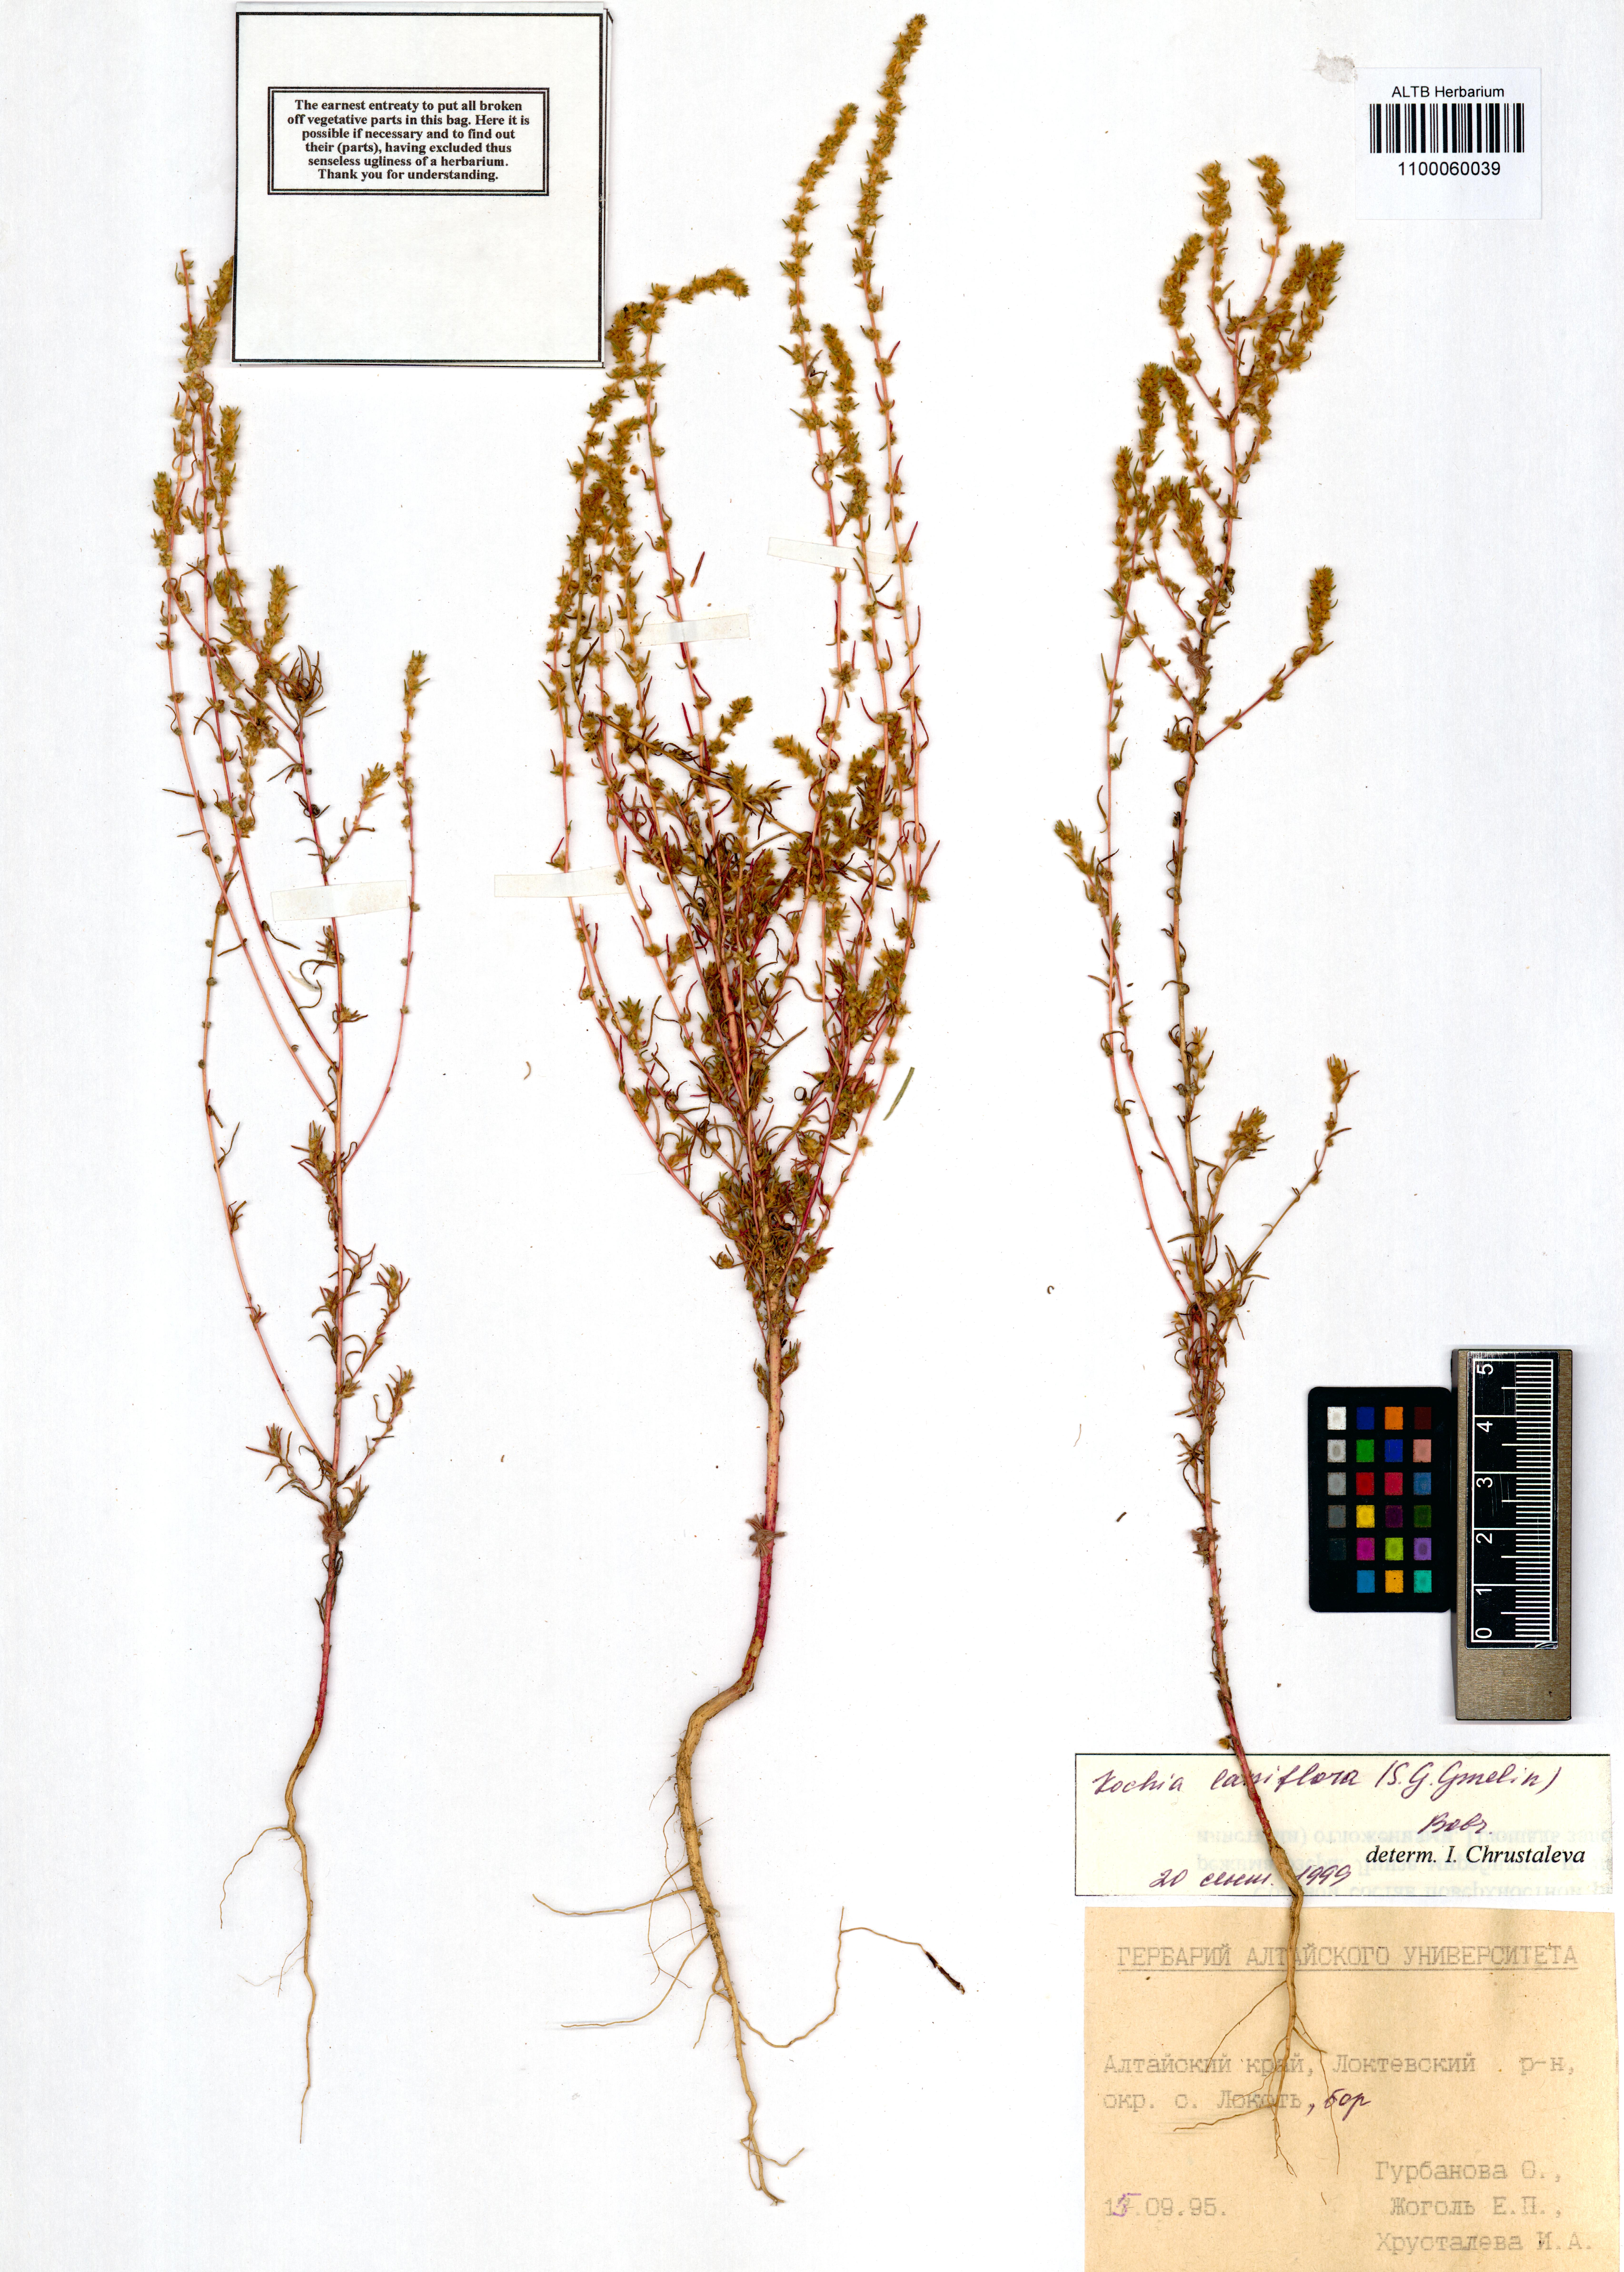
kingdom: Plantae
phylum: Tracheophyta
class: Magnoliopsida
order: Caryophyllales
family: Amaranthaceae
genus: Bassia
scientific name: Bassia laniflora
